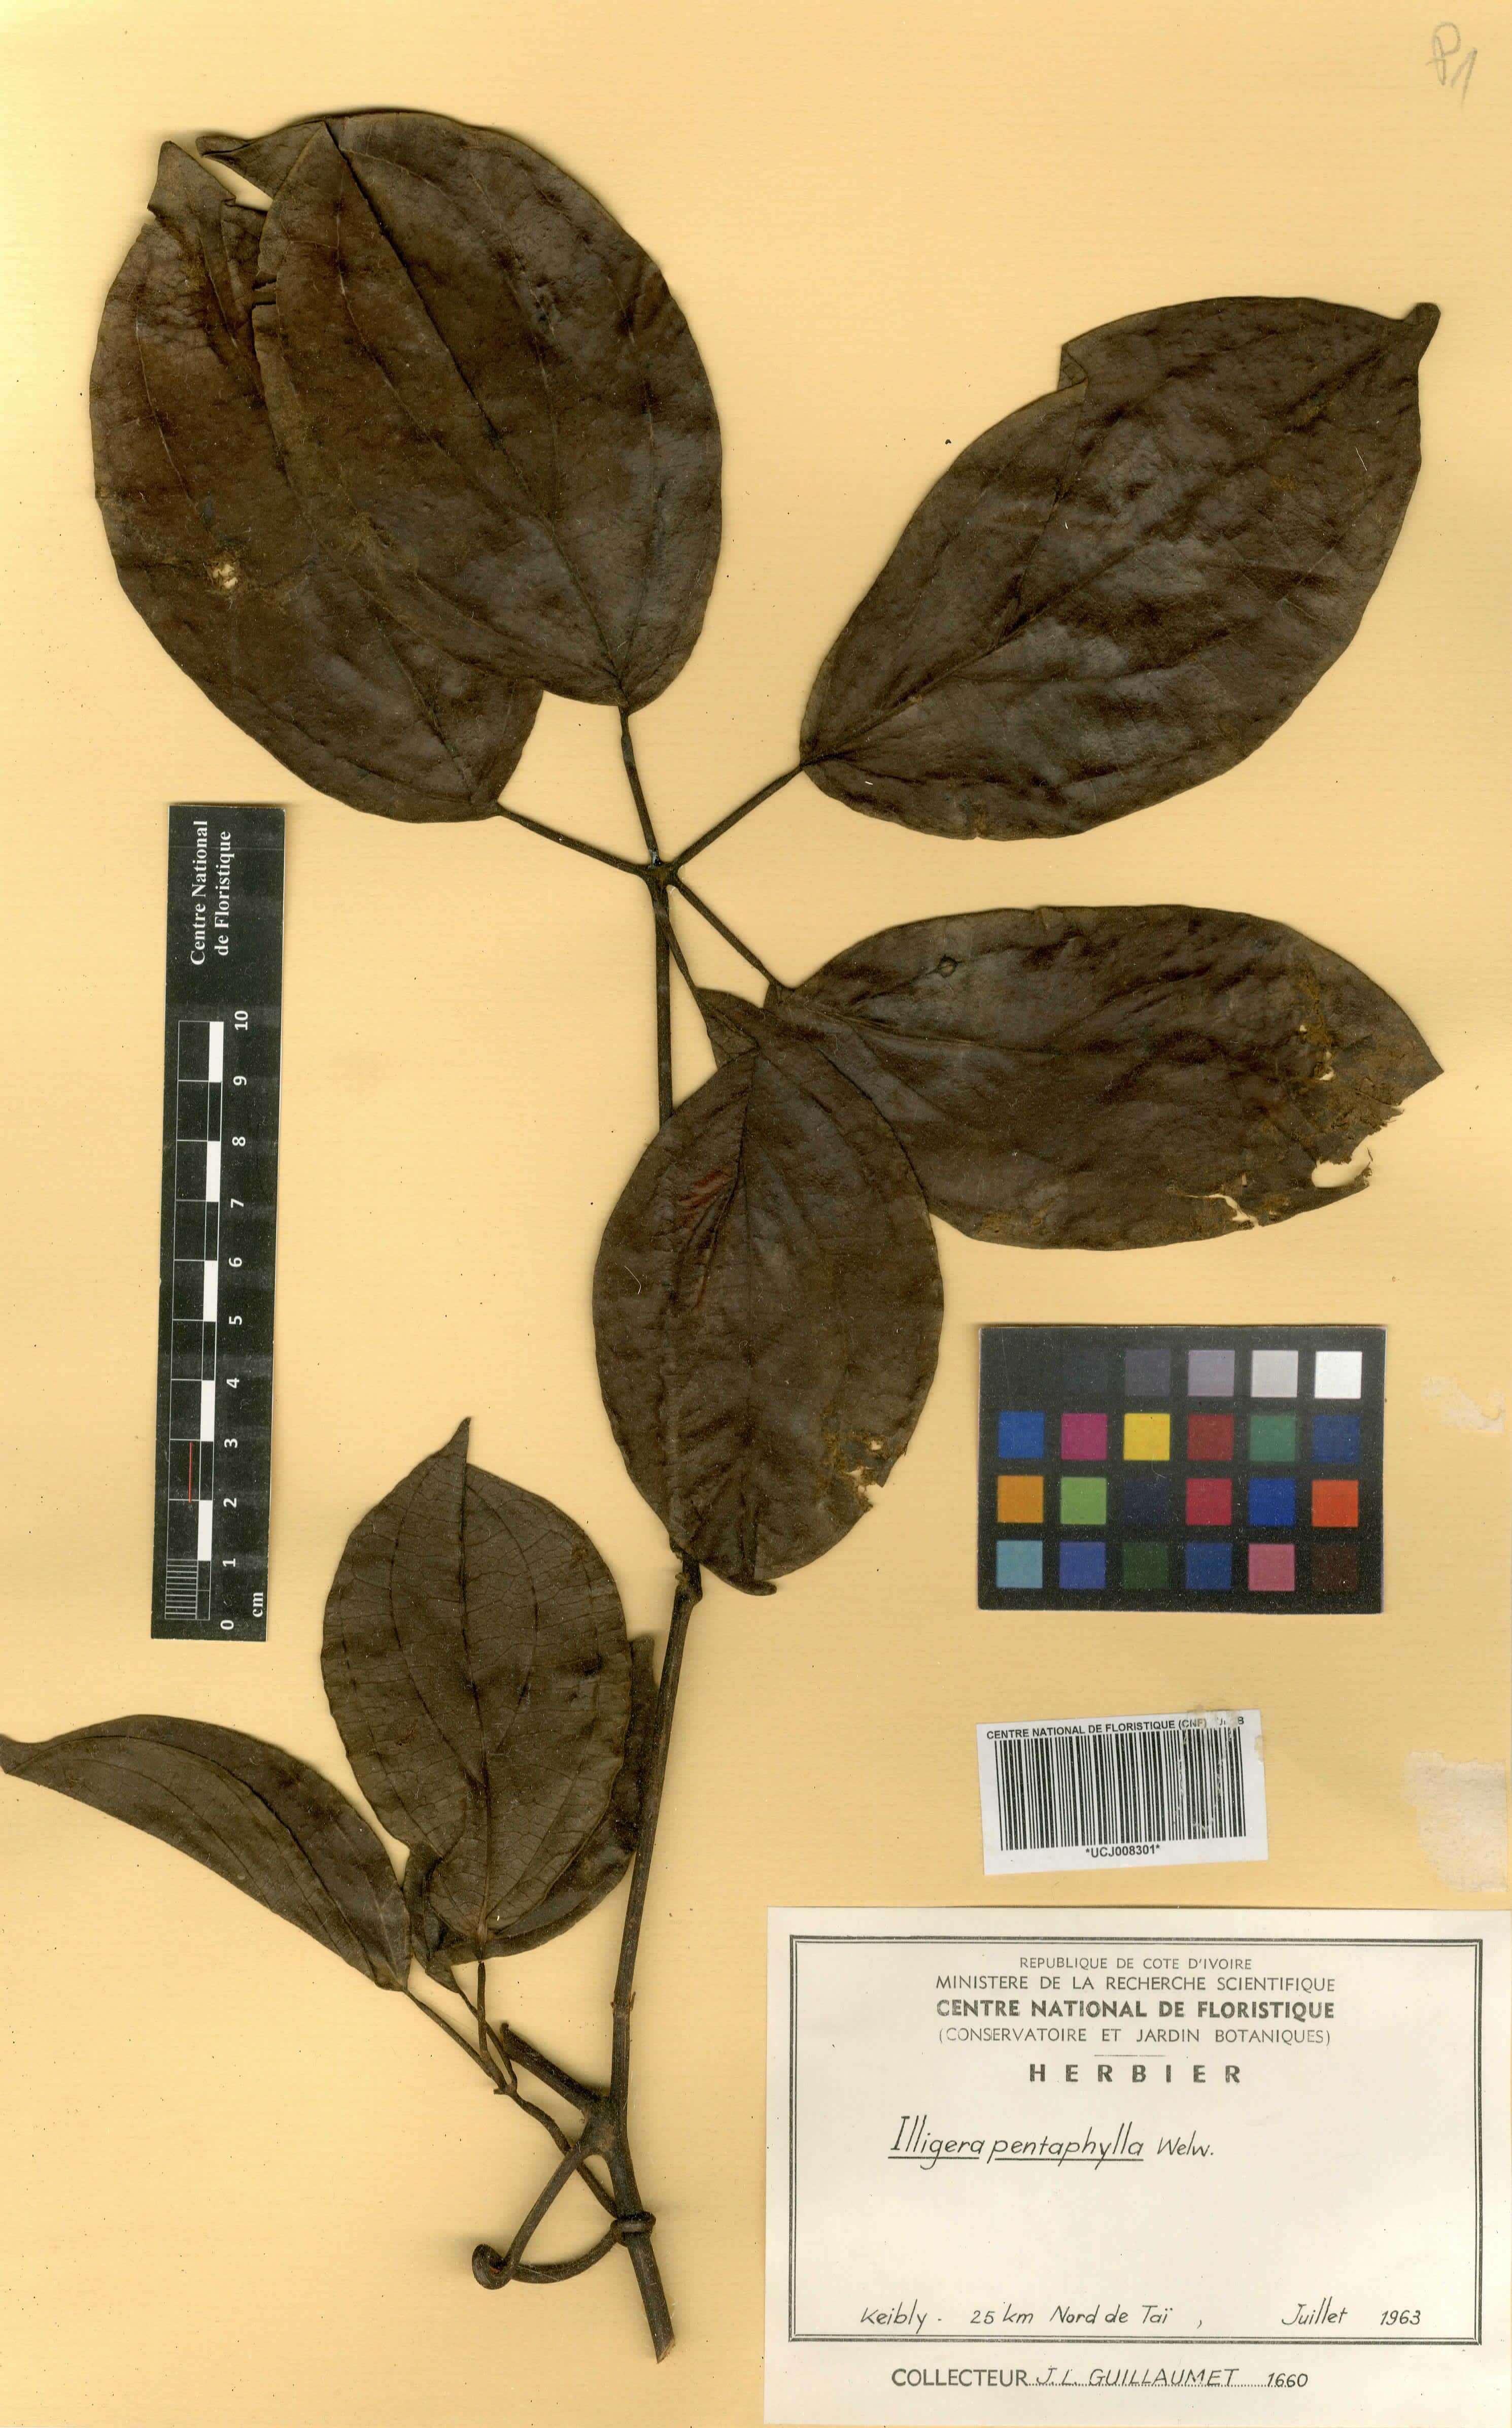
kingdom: Plantae
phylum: Tracheophyta
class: Magnoliopsida
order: Laurales
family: Hernandiaceae
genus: Illigera
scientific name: Illigera pentaphylla
